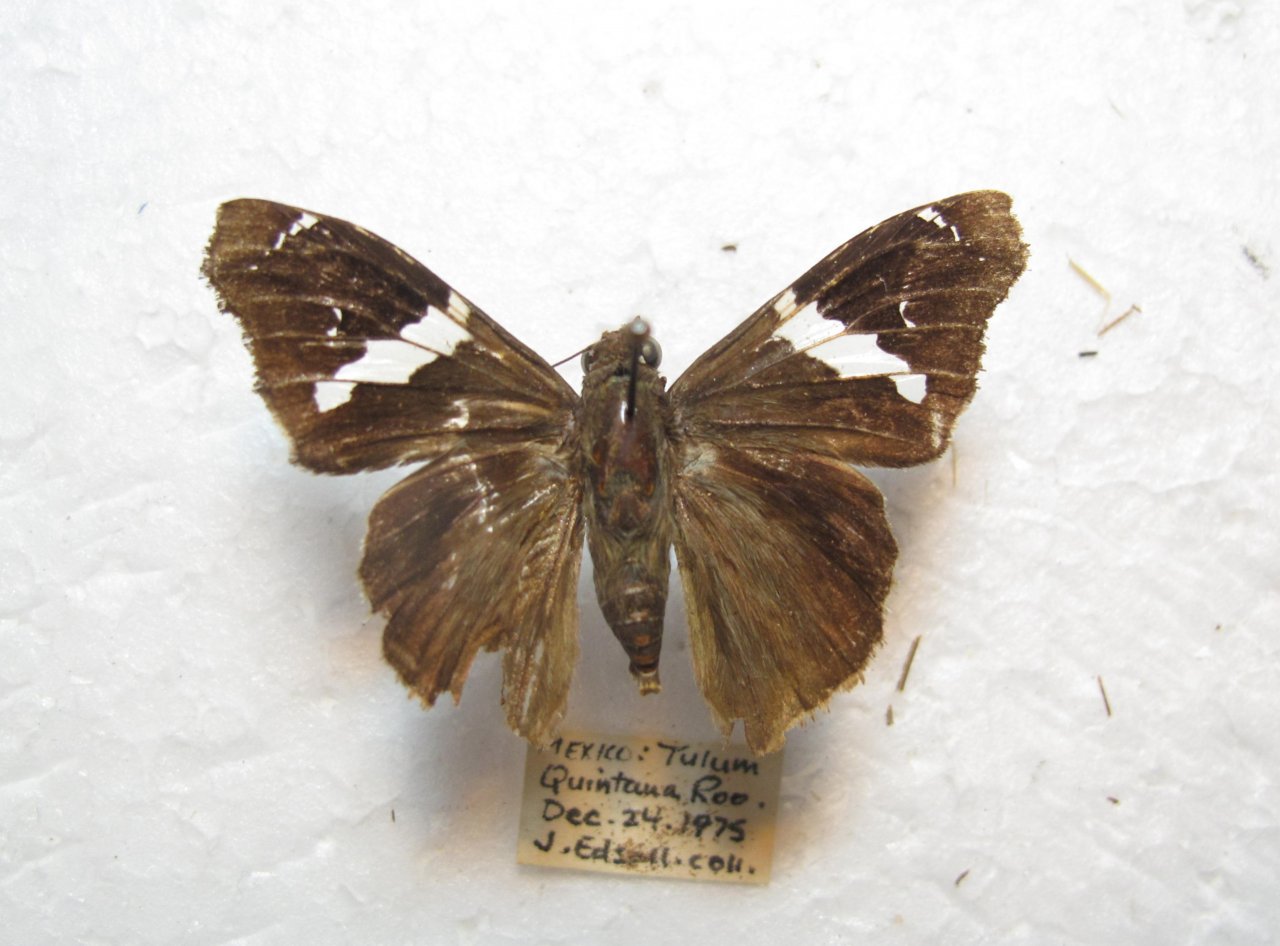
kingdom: Animalia
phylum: Arthropoda
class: Insecta
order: Lepidoptera
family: Hesperiidae
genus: Spathilepia
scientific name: Spathilepia clonius
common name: Falcate Skipper
